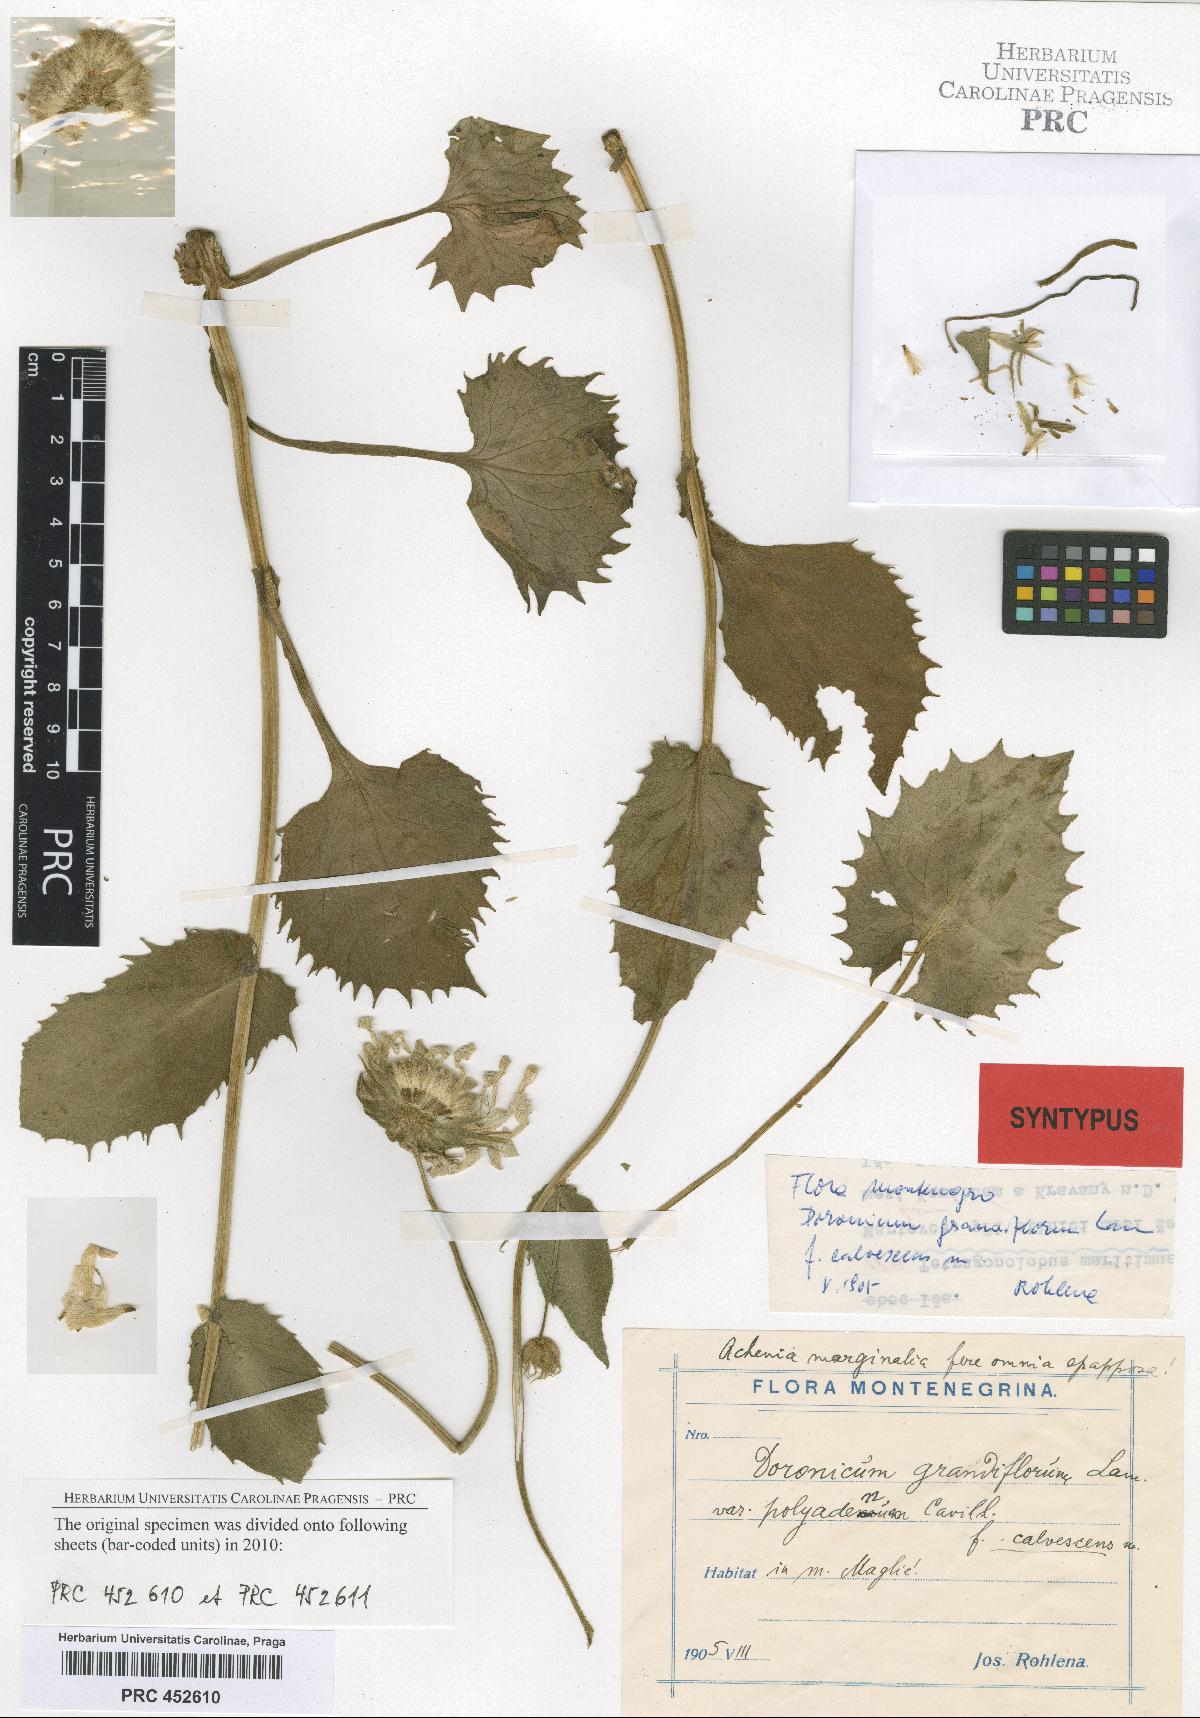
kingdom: Plantae
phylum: Tracheophyta
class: Magnoliopsida
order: Asterales
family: Asteraceae
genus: Doronicum
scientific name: Doronicum grandiflorum
